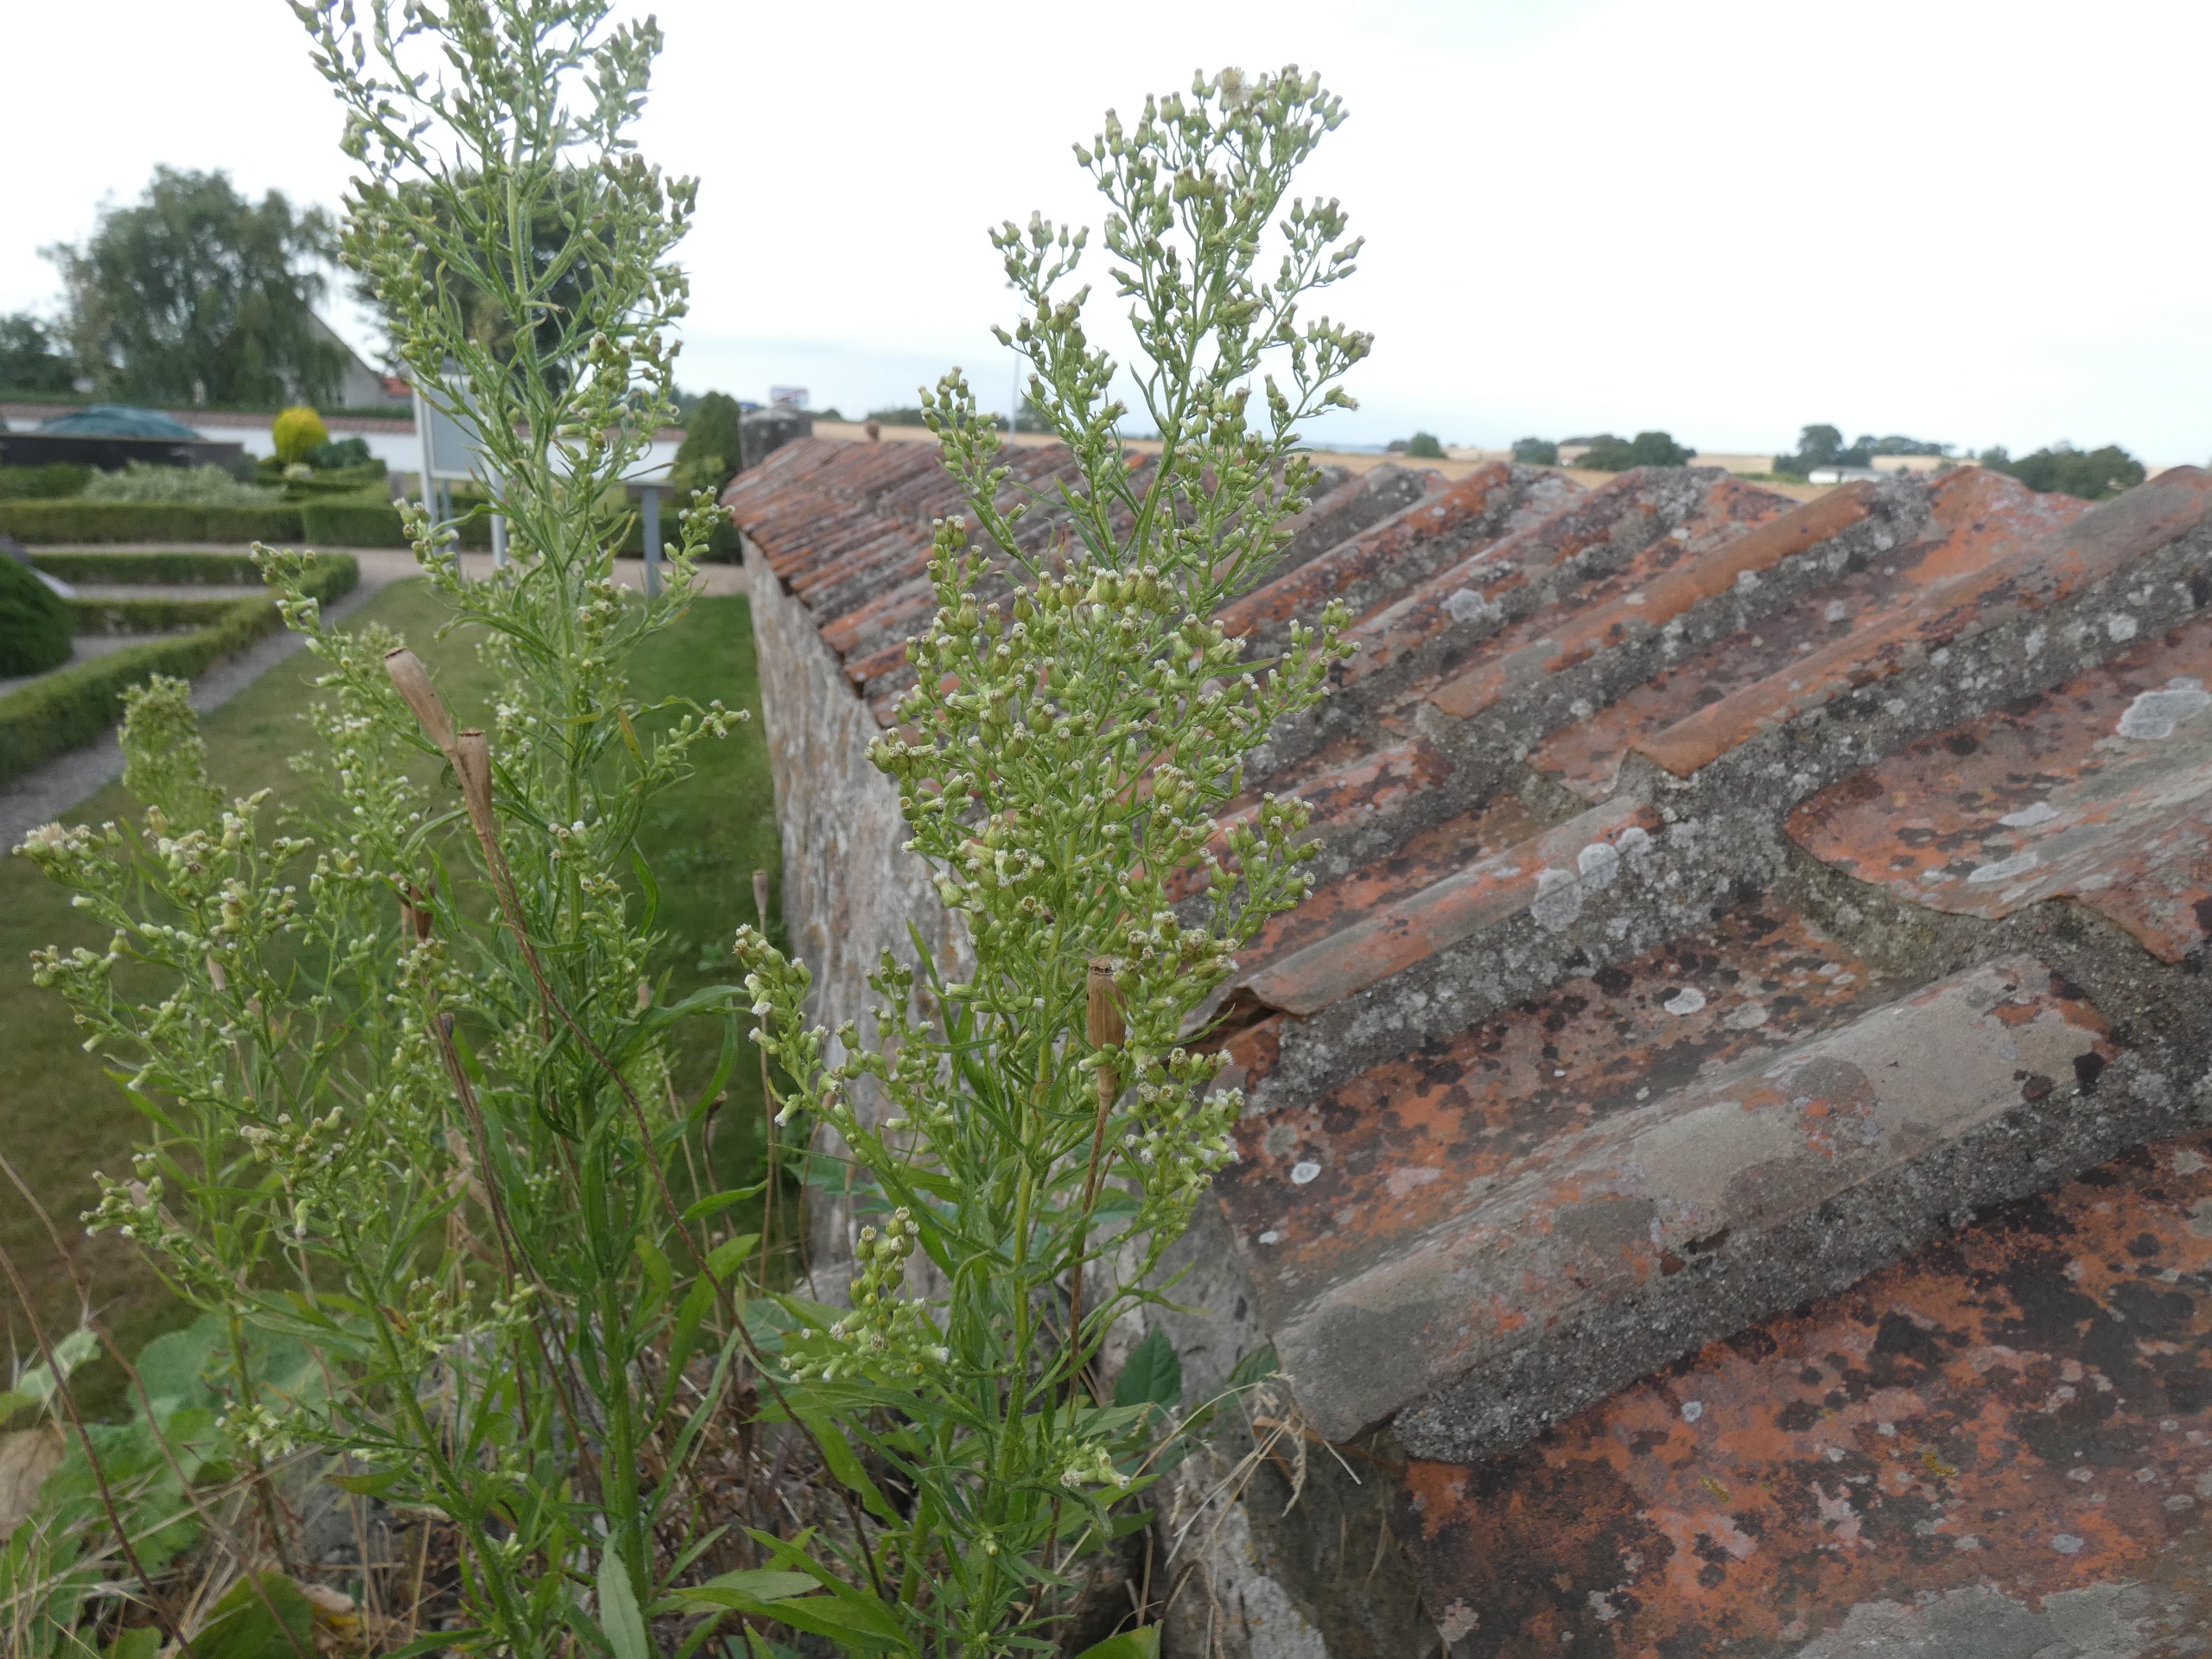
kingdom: Plantae
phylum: Tracheophyta
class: Magnoliopsida
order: Asterales
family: Asteraceae
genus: Erigeron
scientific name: Erigeron canadensis
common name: Kanadisk bakkestjerne
